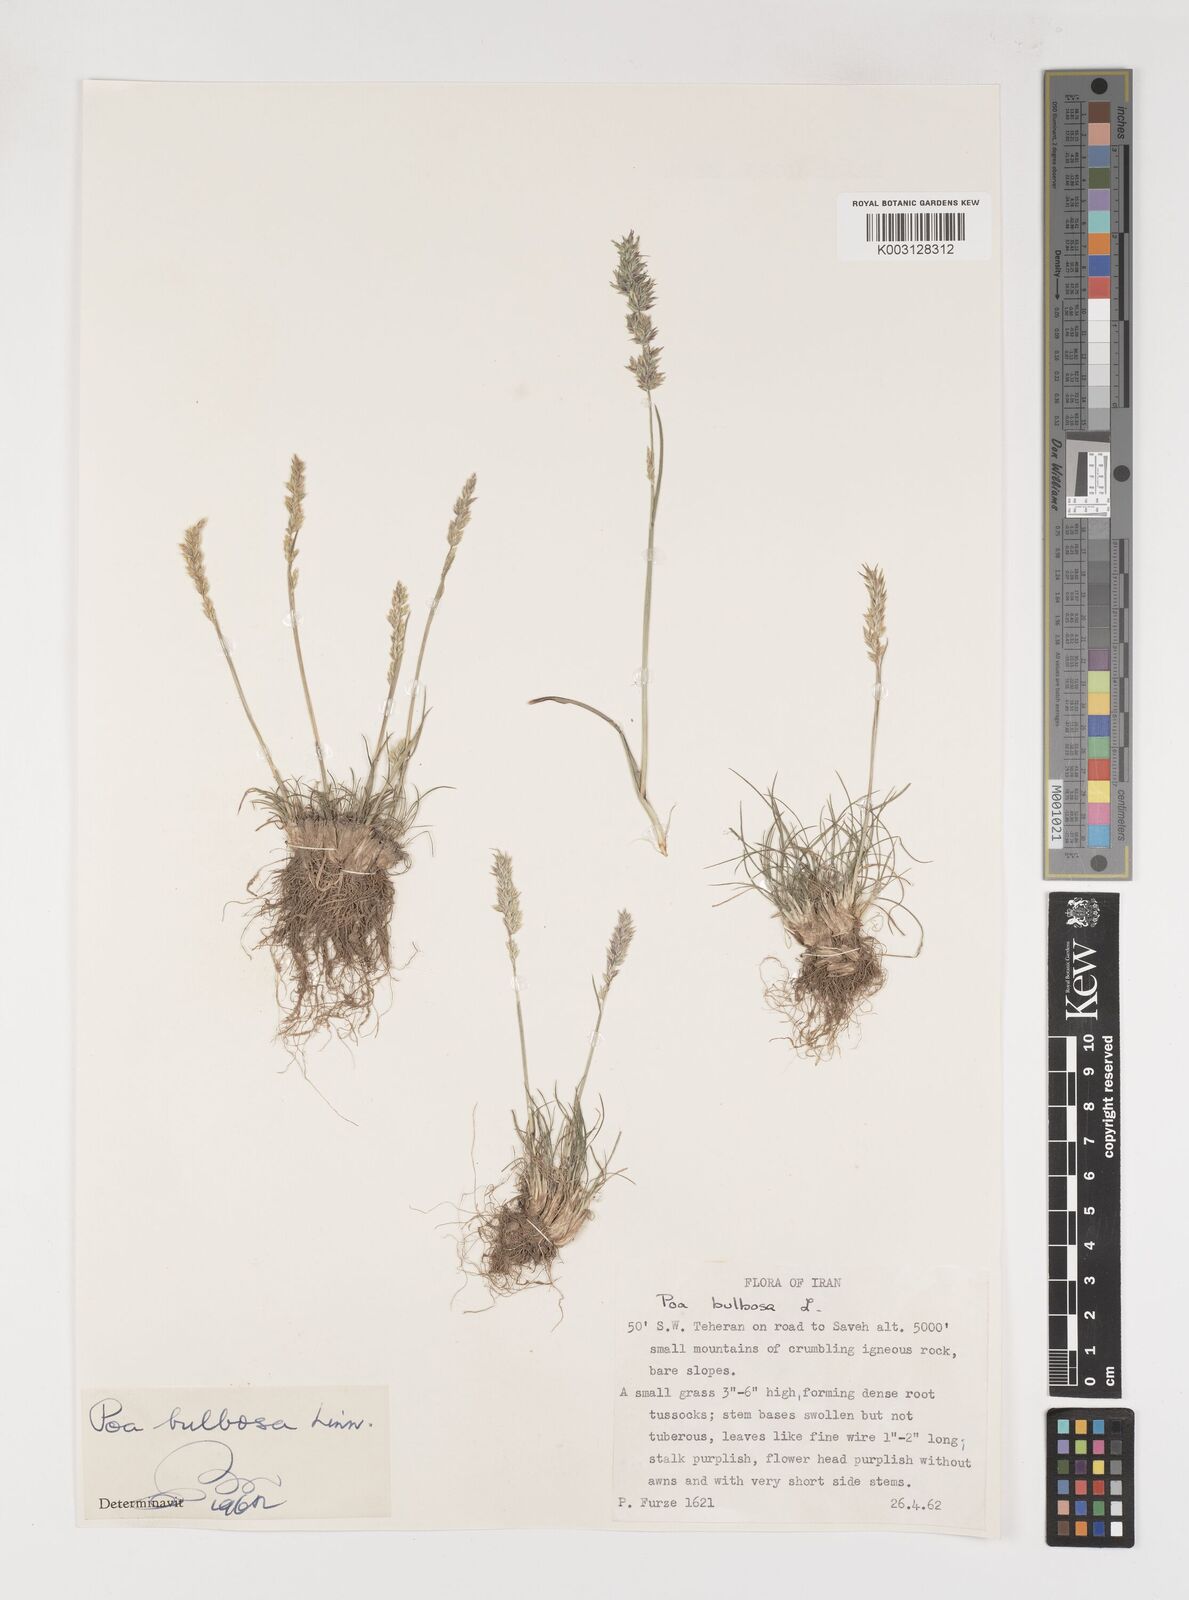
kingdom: Plantae
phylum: Tracheophyta
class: Liliopsida
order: Poales
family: Poaceae
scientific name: Poaceae
